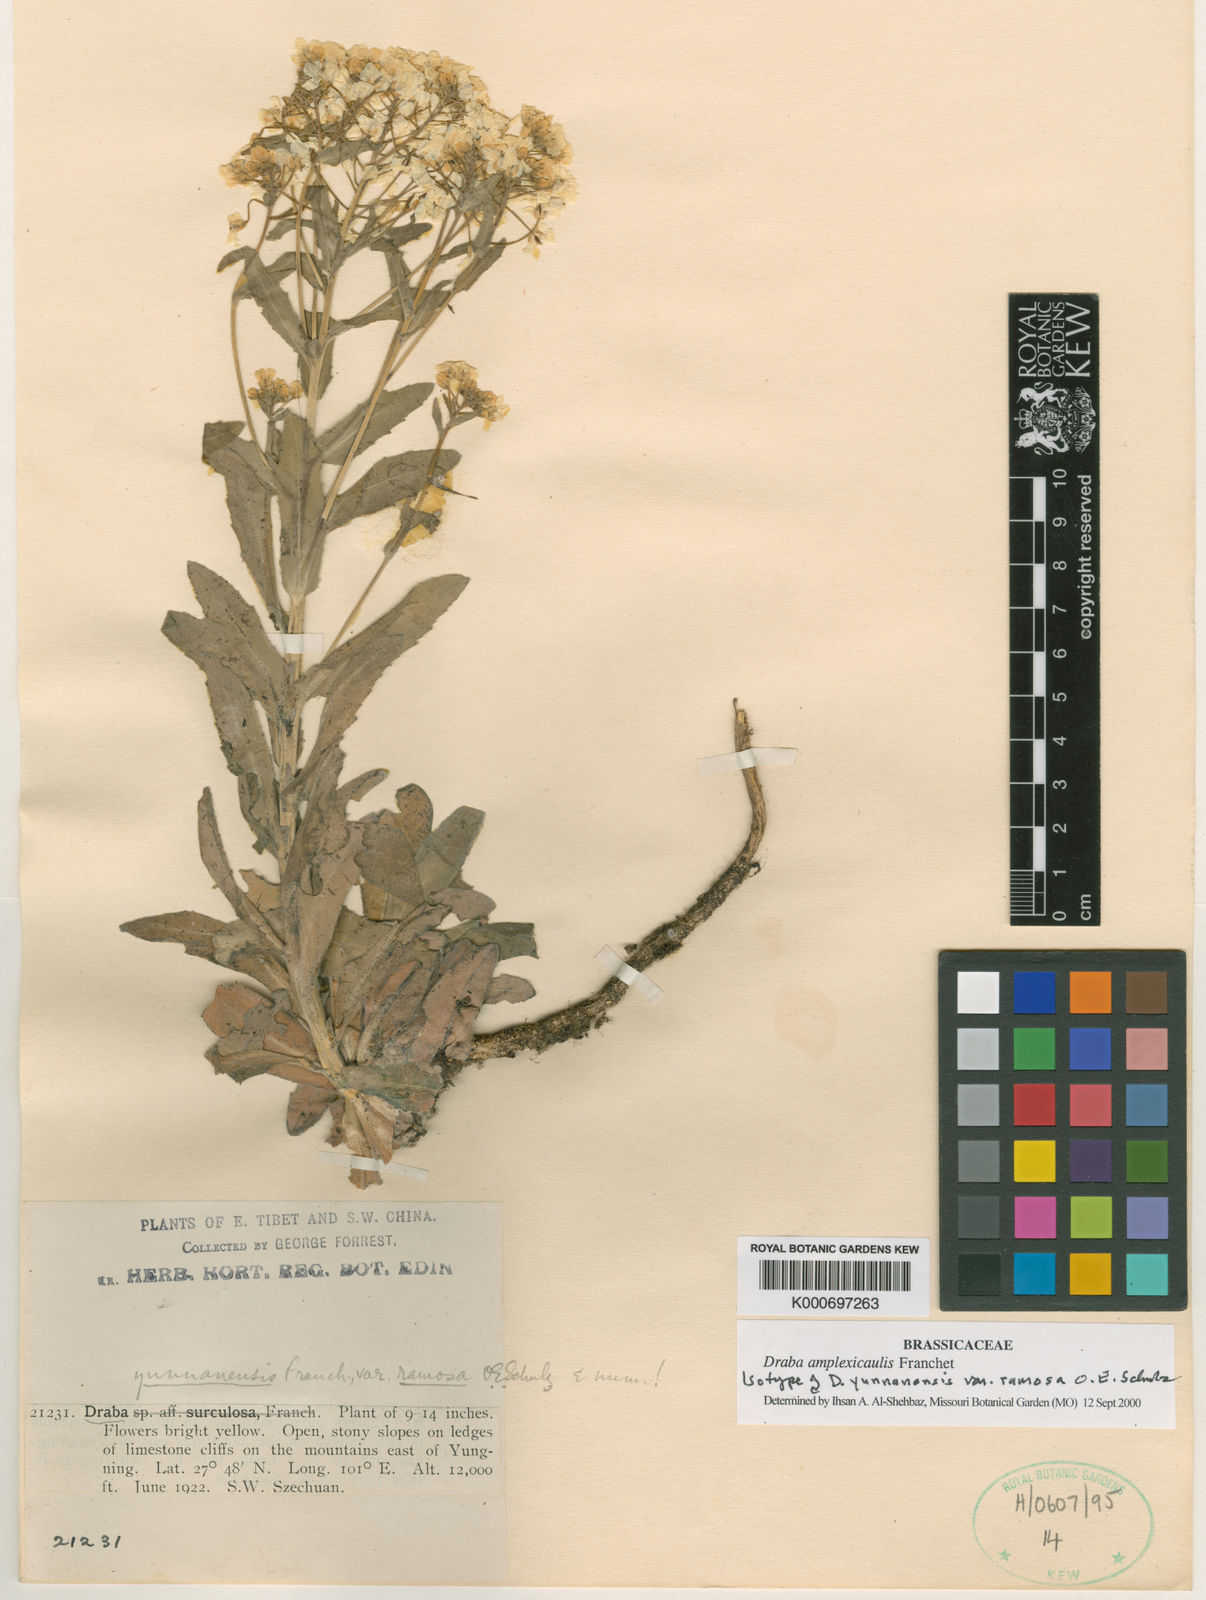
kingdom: Plantae
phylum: Tracheophyta
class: Magnoliopsida
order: Brassicales
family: Brassicaceae
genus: Draba
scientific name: Draba yunnanensis
